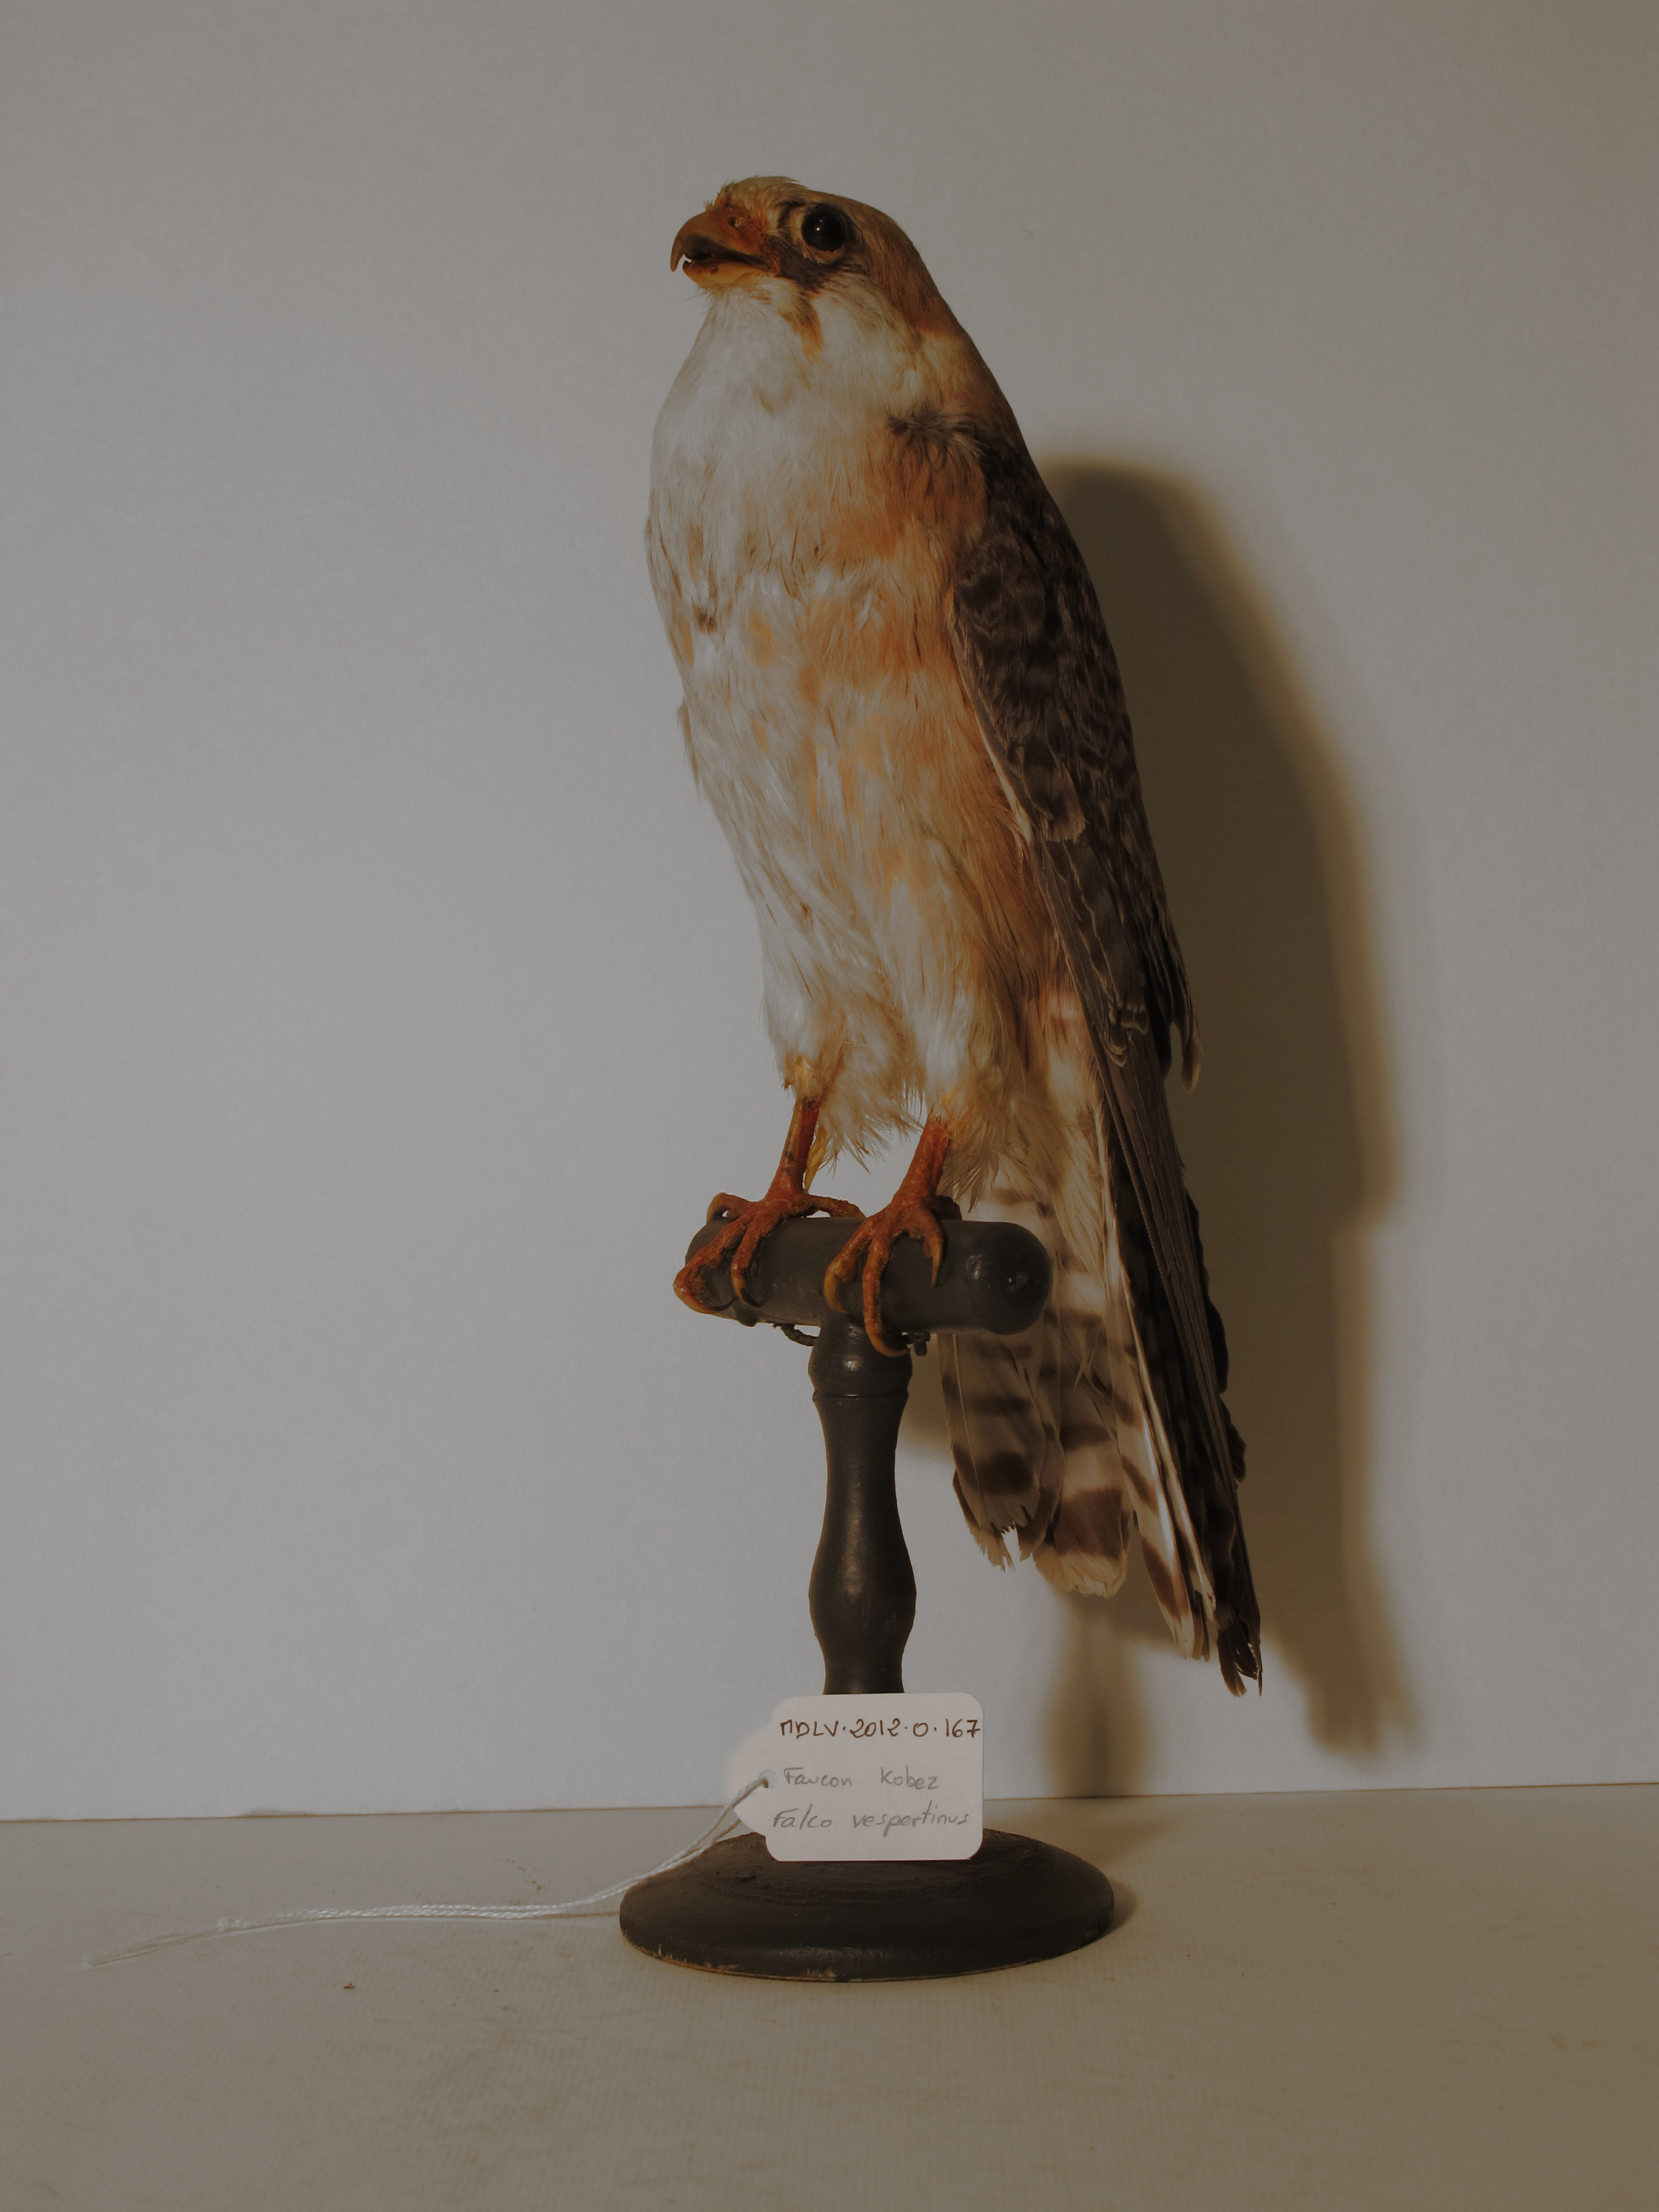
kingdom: Animalia
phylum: Chordata
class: Aves
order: Falconiformes
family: Falconidae
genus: Falco
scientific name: Falco vespertinus
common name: Red-footed Falcon
